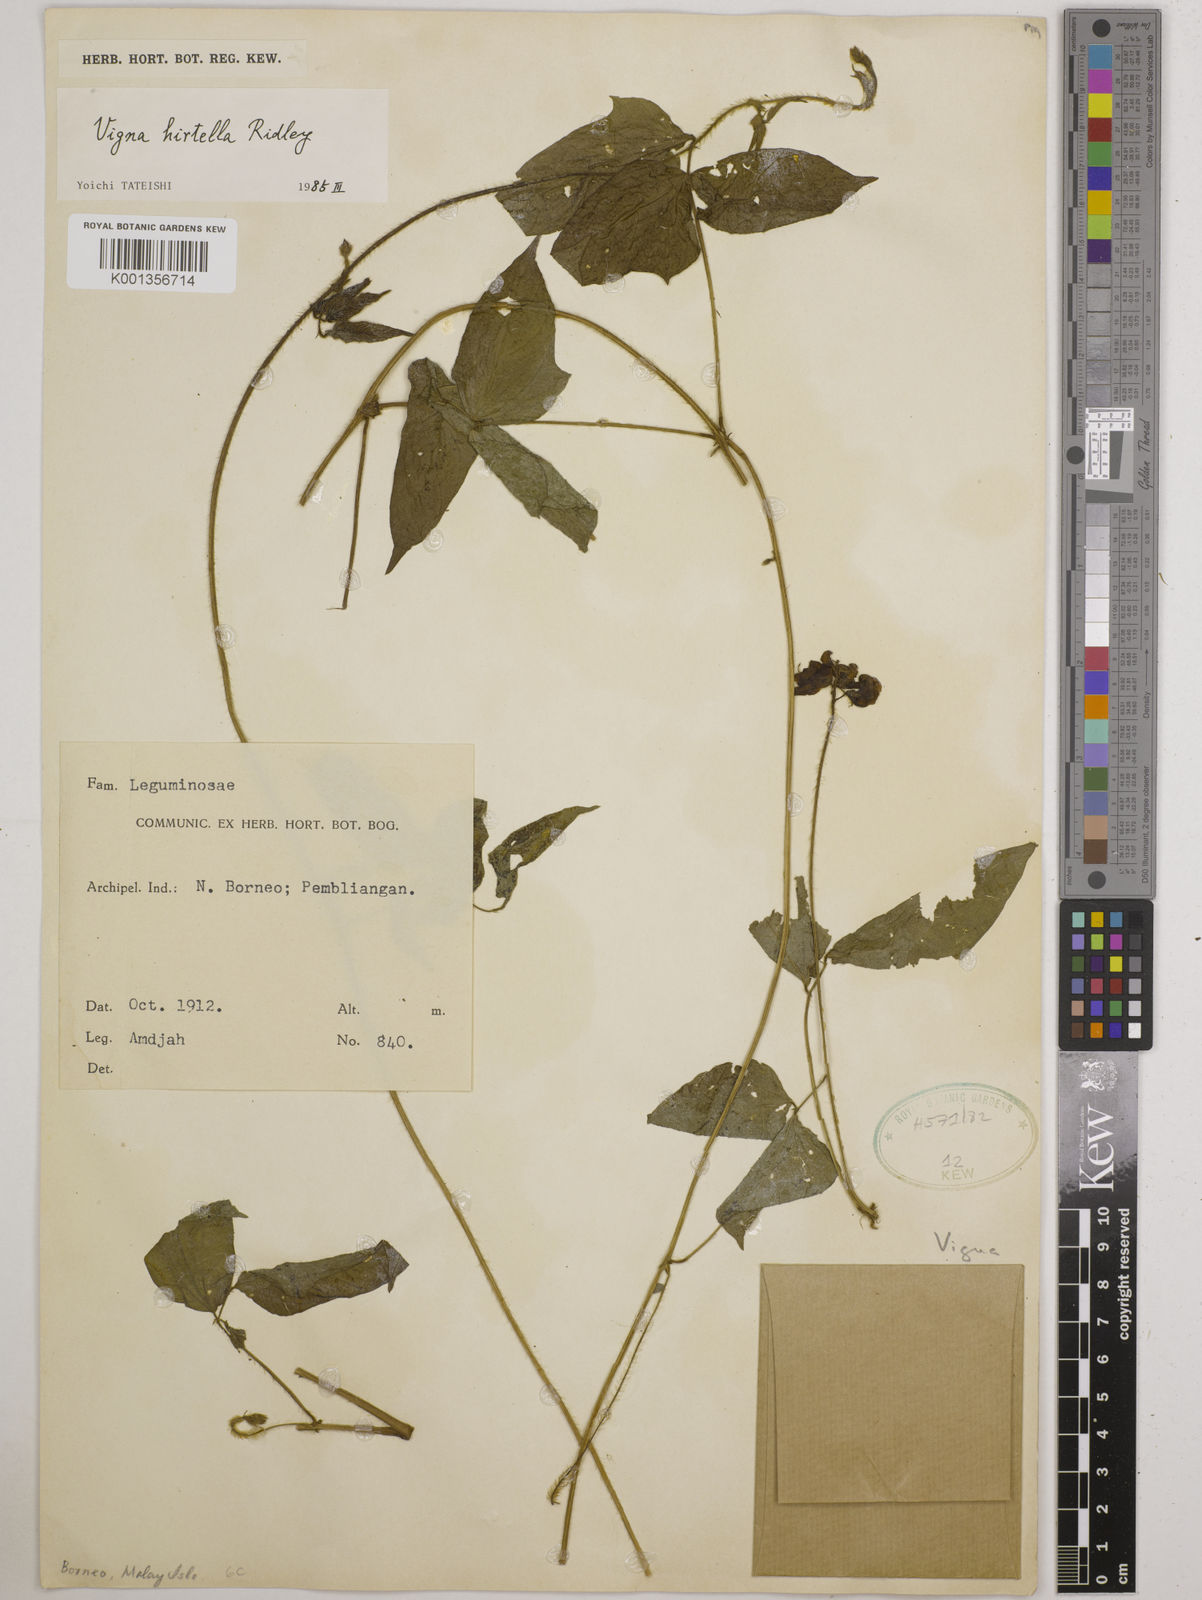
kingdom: Plantae
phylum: Tracheophyta
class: Magnoliopsida
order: Fabales
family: Fabaceae
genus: Vigna
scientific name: Vigna hirtella
